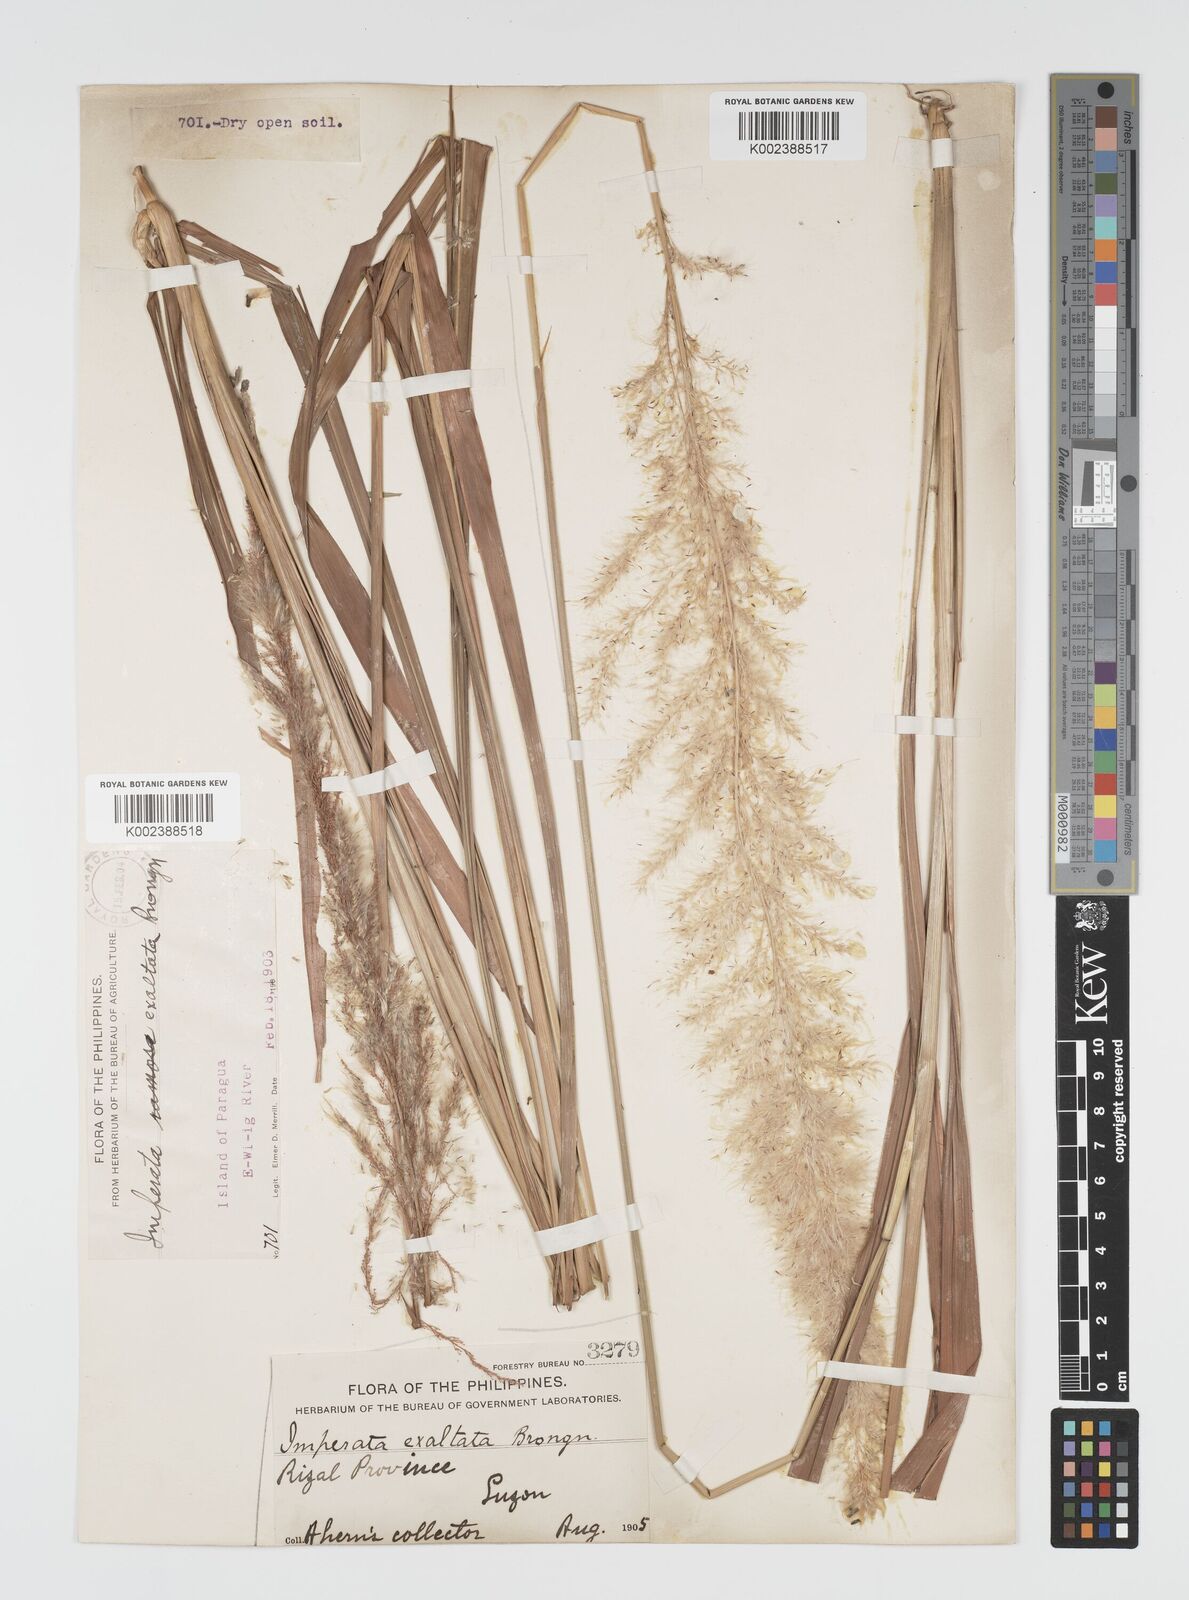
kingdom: Plantae
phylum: Tracheophyta
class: Liliopsida
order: Poales
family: Poaceae
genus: Imperata
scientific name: Imperata conferta
